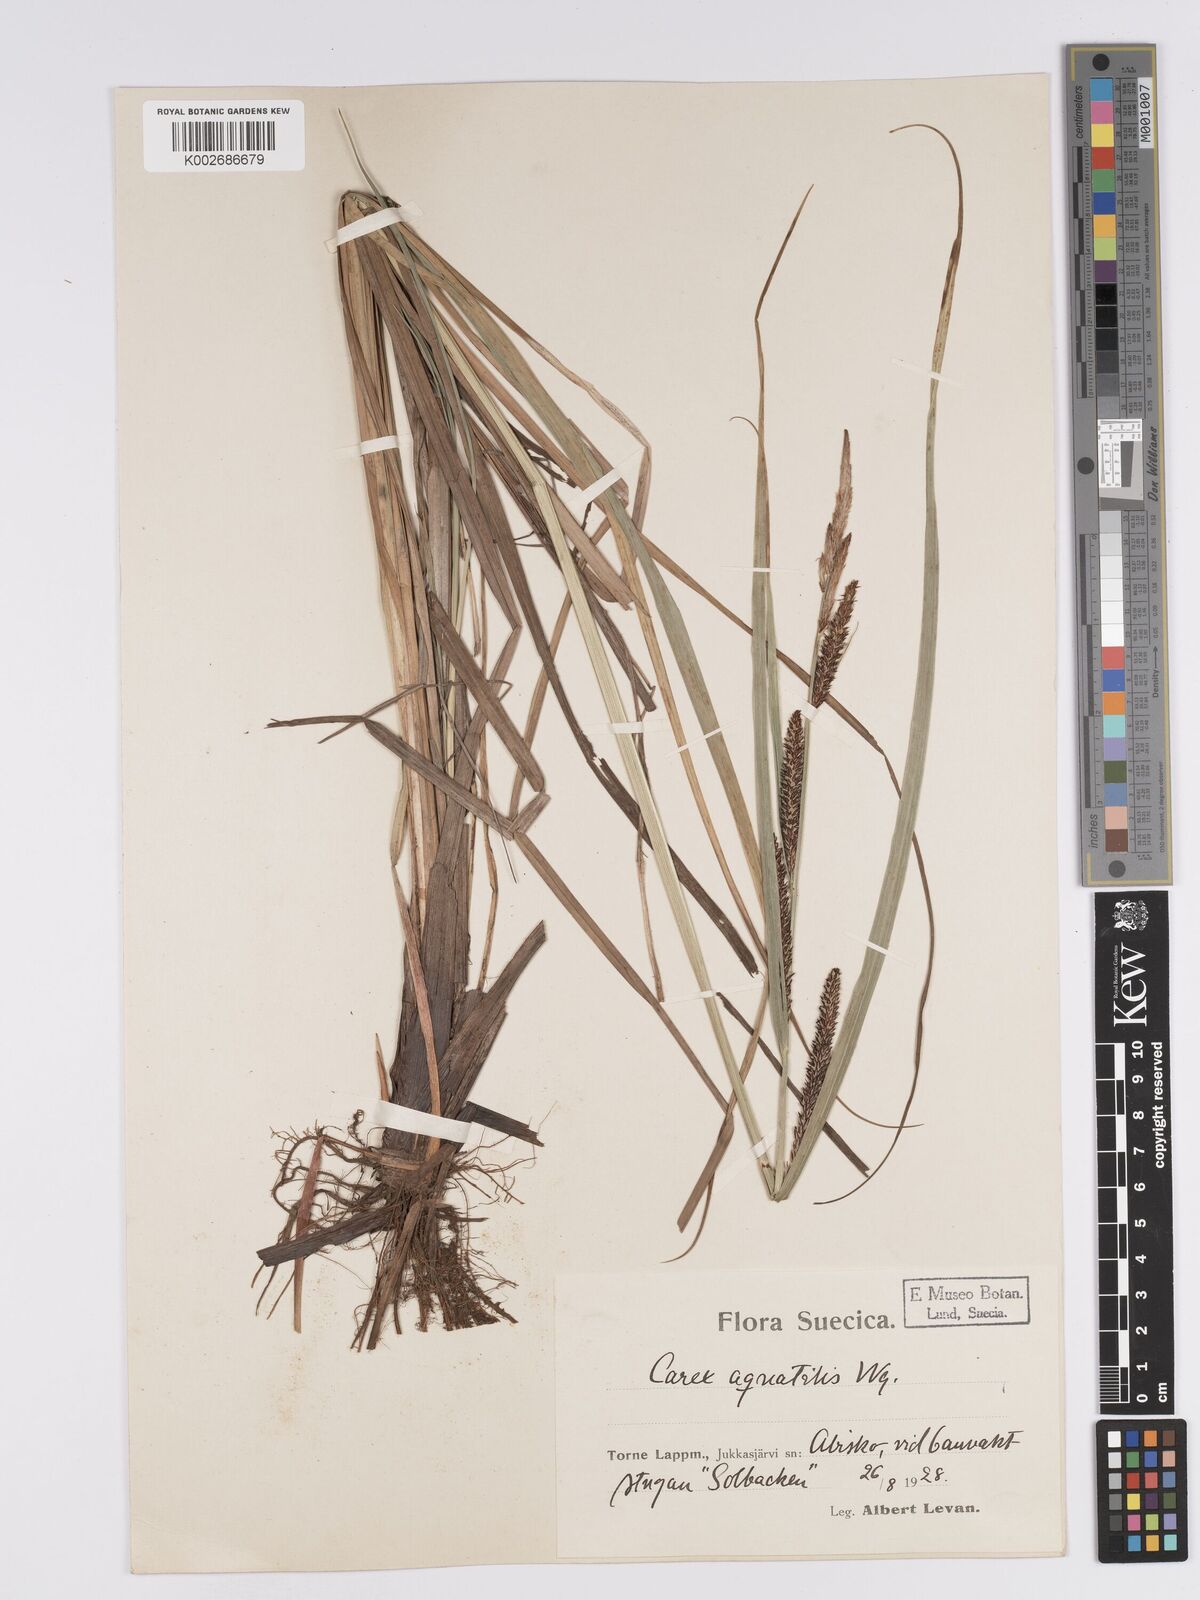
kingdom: Plantae
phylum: Tracheophyta
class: Liliopsida
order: Poales
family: Cyperaceae
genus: Carex
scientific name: Carex aquatilis
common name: Water sedge
